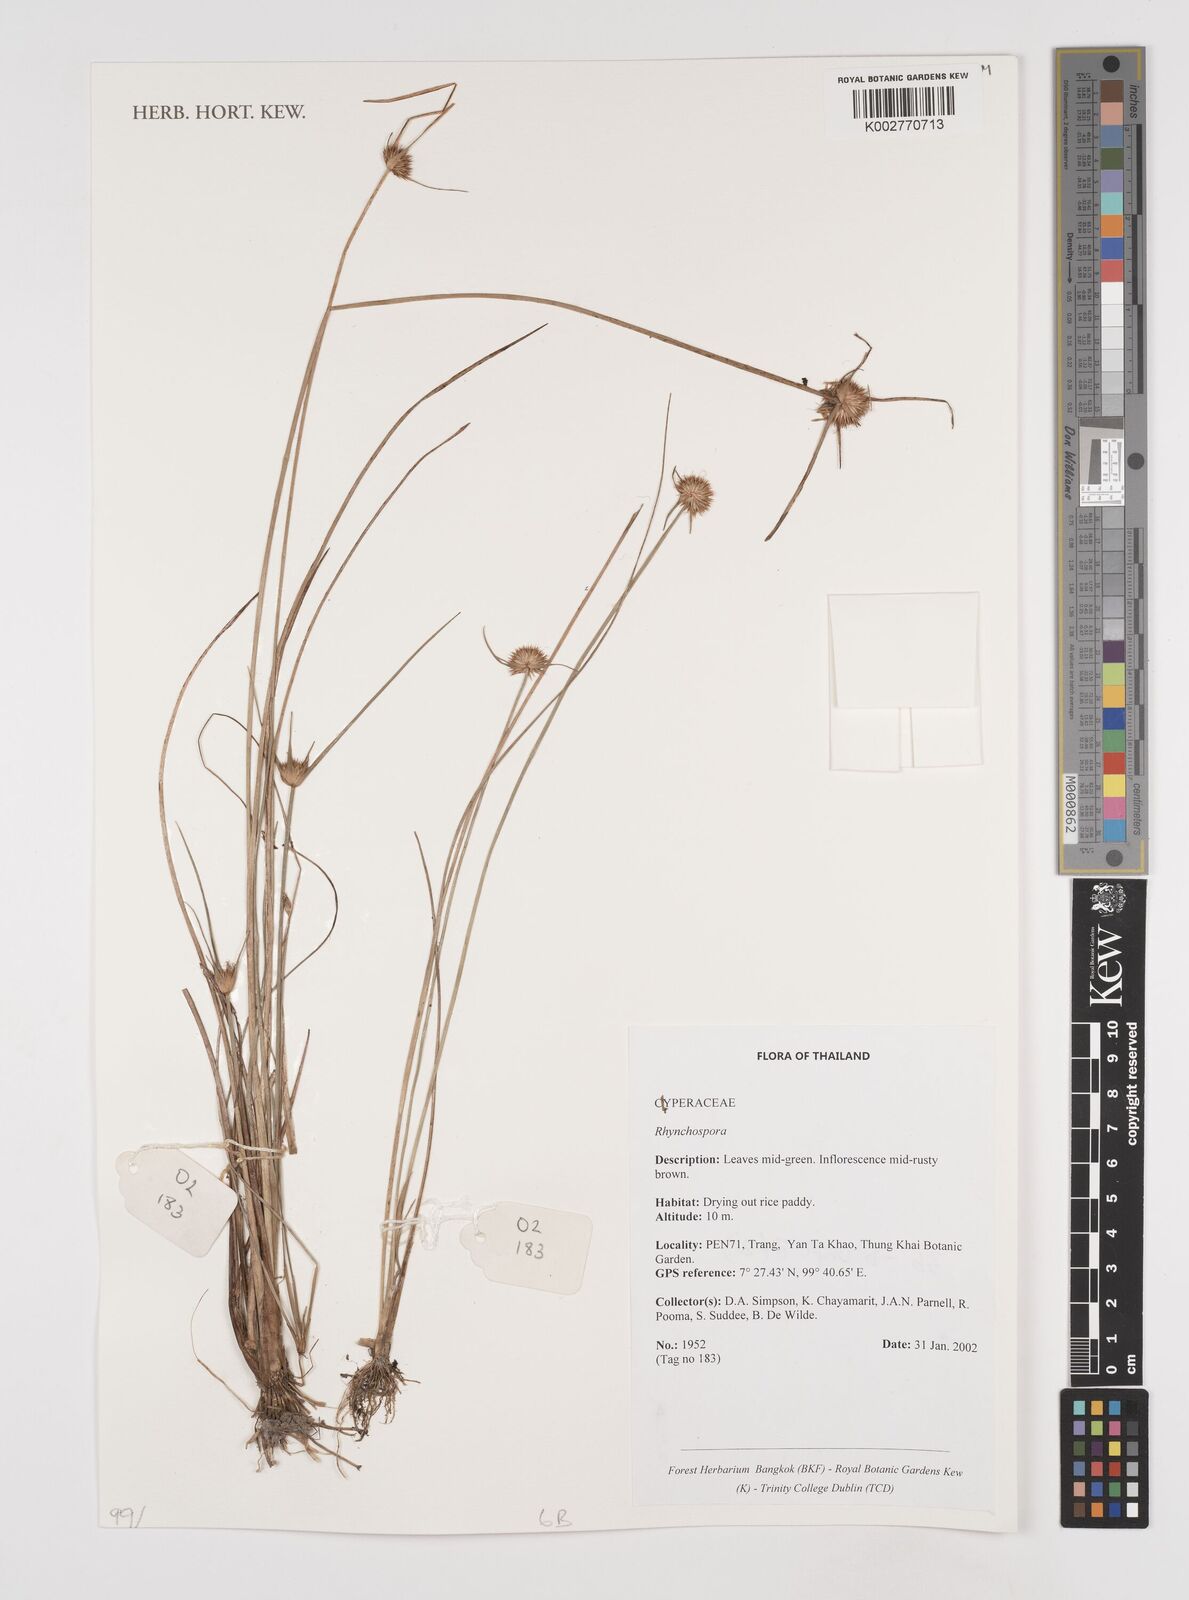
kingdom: Plantae
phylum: Tracheophyta
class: Liliopsida
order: Poales
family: Cyperaceae
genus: Rhynchospora
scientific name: Rhynchospora
